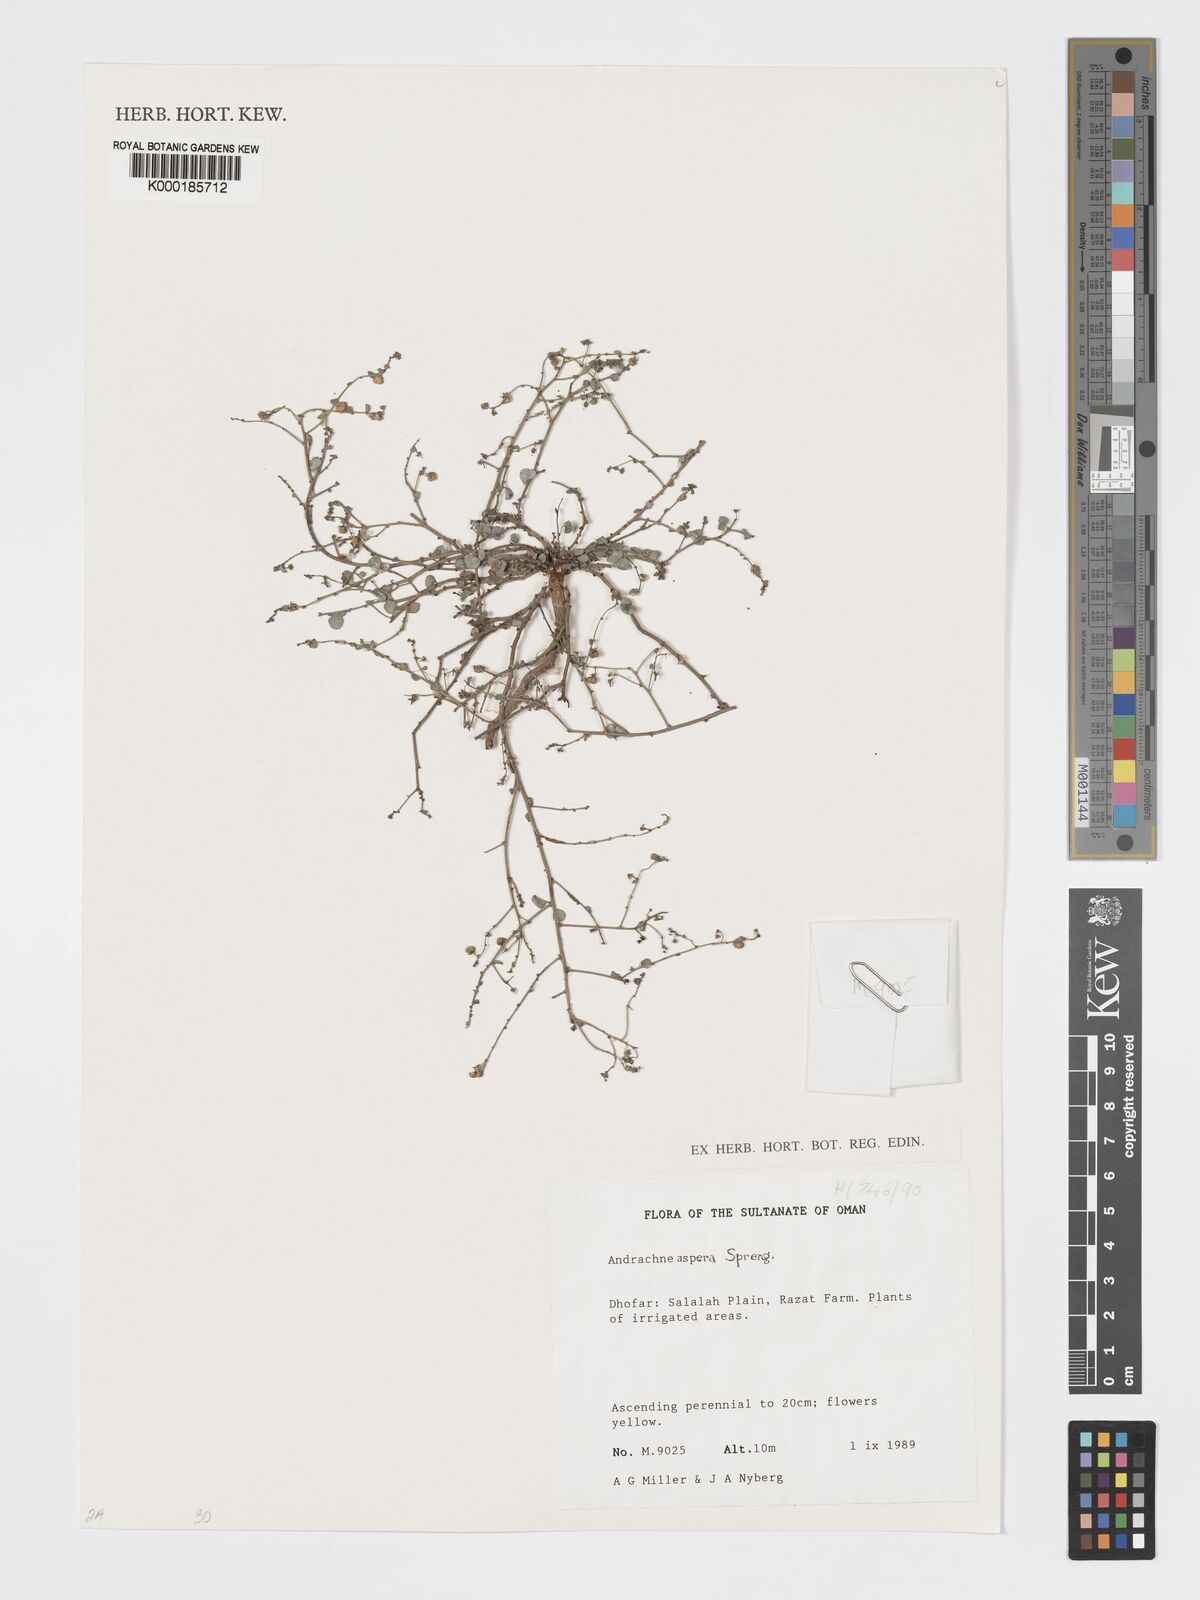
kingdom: Plantae
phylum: Tracheophyta
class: Magnoliopsida
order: Malpighiales
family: Phyllanthaceae
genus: Andrachne
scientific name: Andrachne aspera
